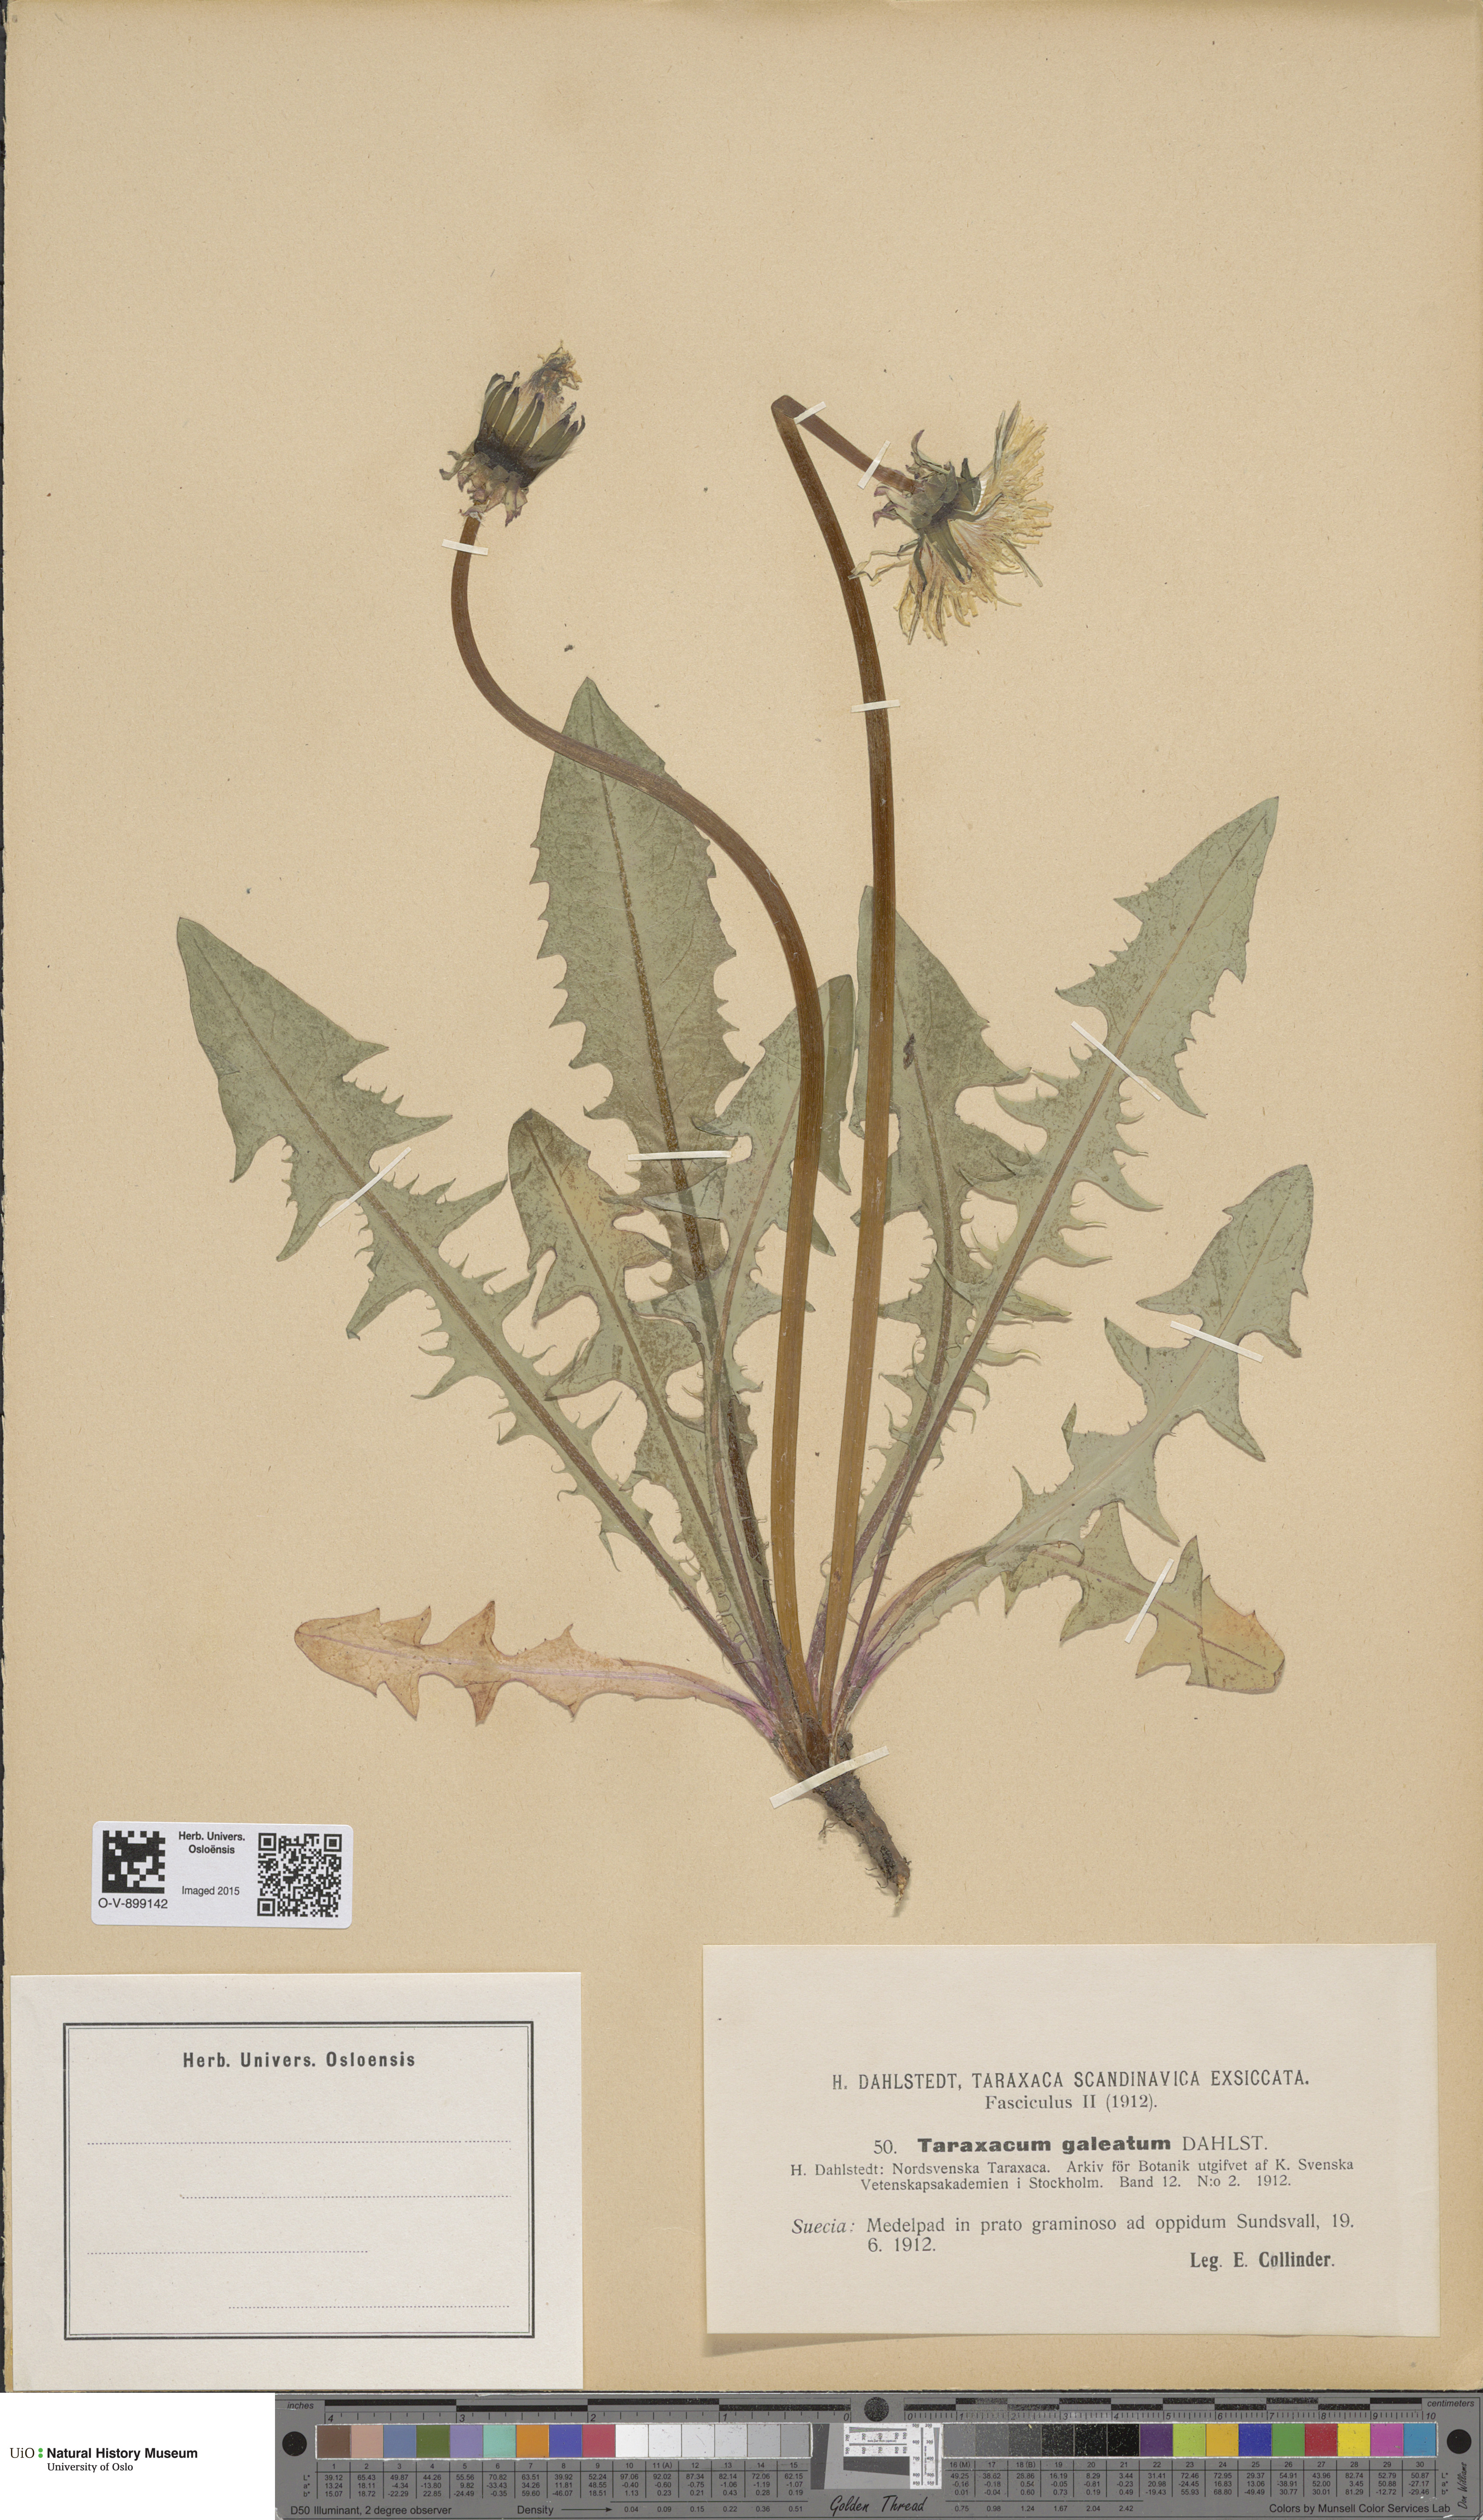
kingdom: Plantae
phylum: Tracheophyta
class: Magnoliopsida
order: Asterales
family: Asteraceae
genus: Taraxacum
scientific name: Taraxacum galeatum
